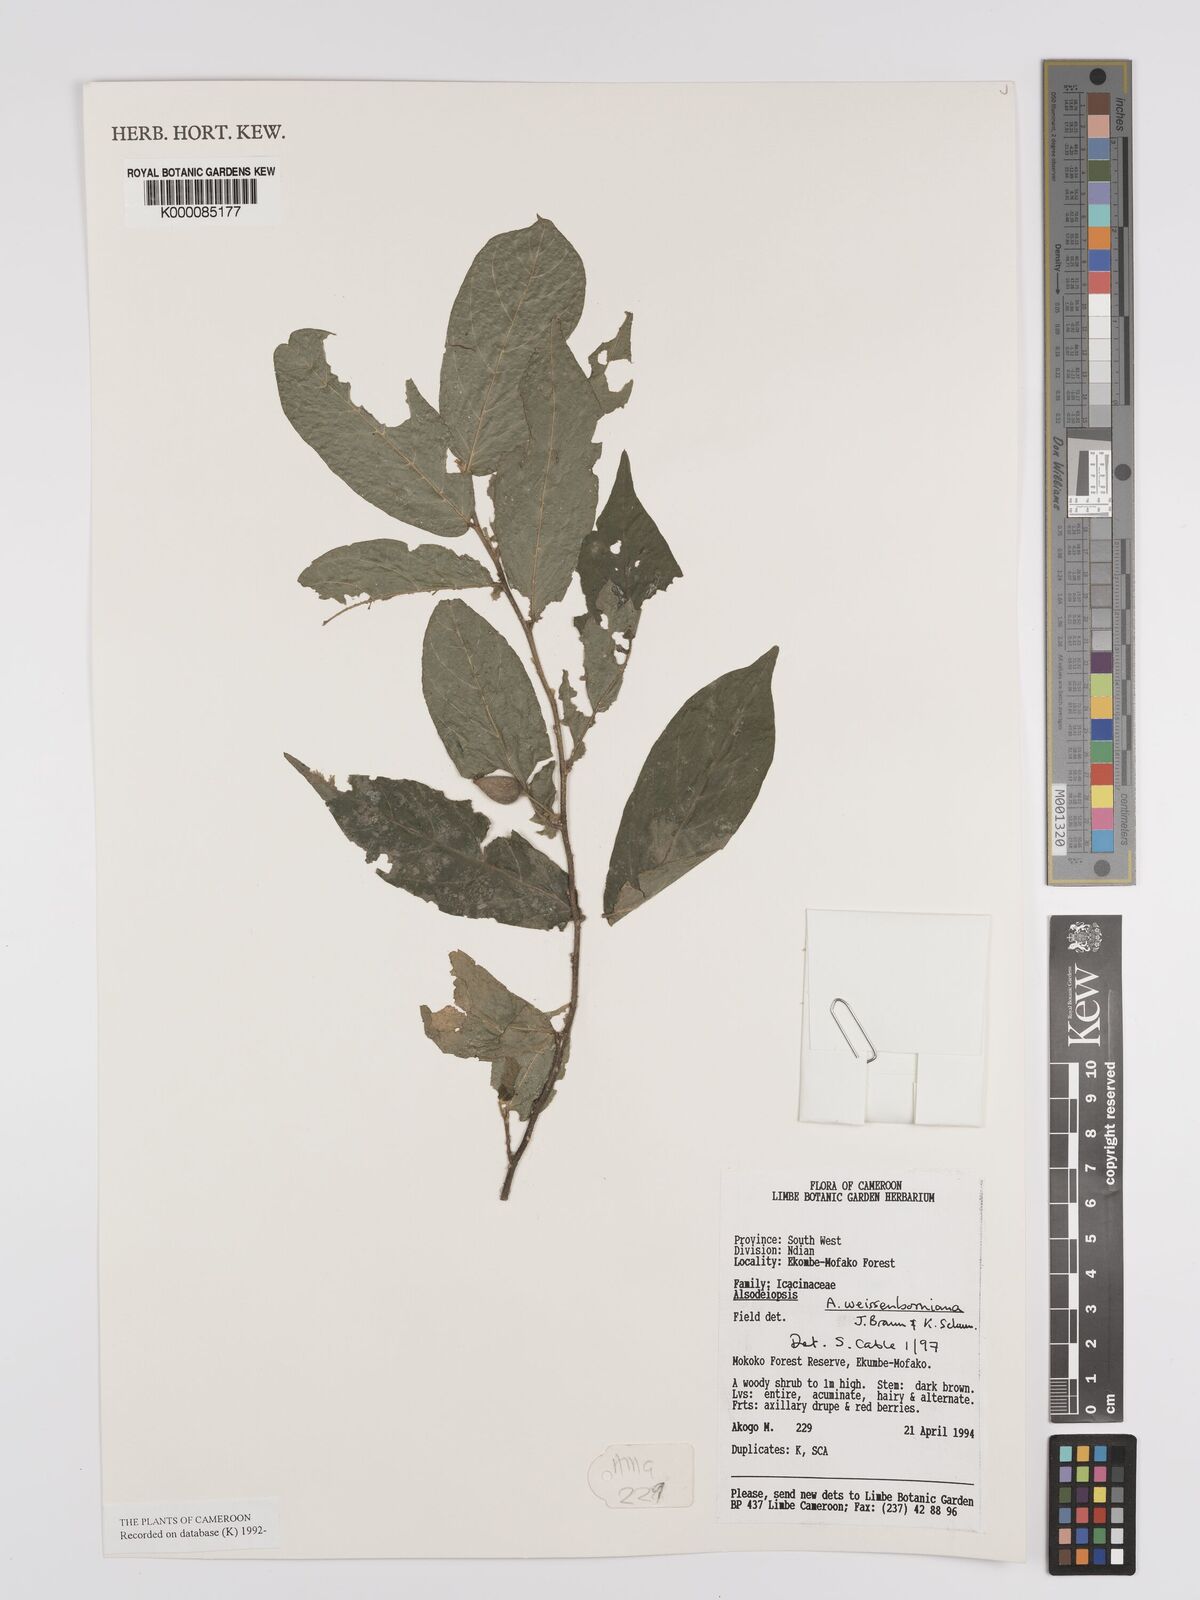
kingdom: Plantae
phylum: Tracheophyta
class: Magnoliopsida
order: Icacinales
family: Icacinaceae
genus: Alsodeiopsis
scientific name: Alsodeiopsis mannii
